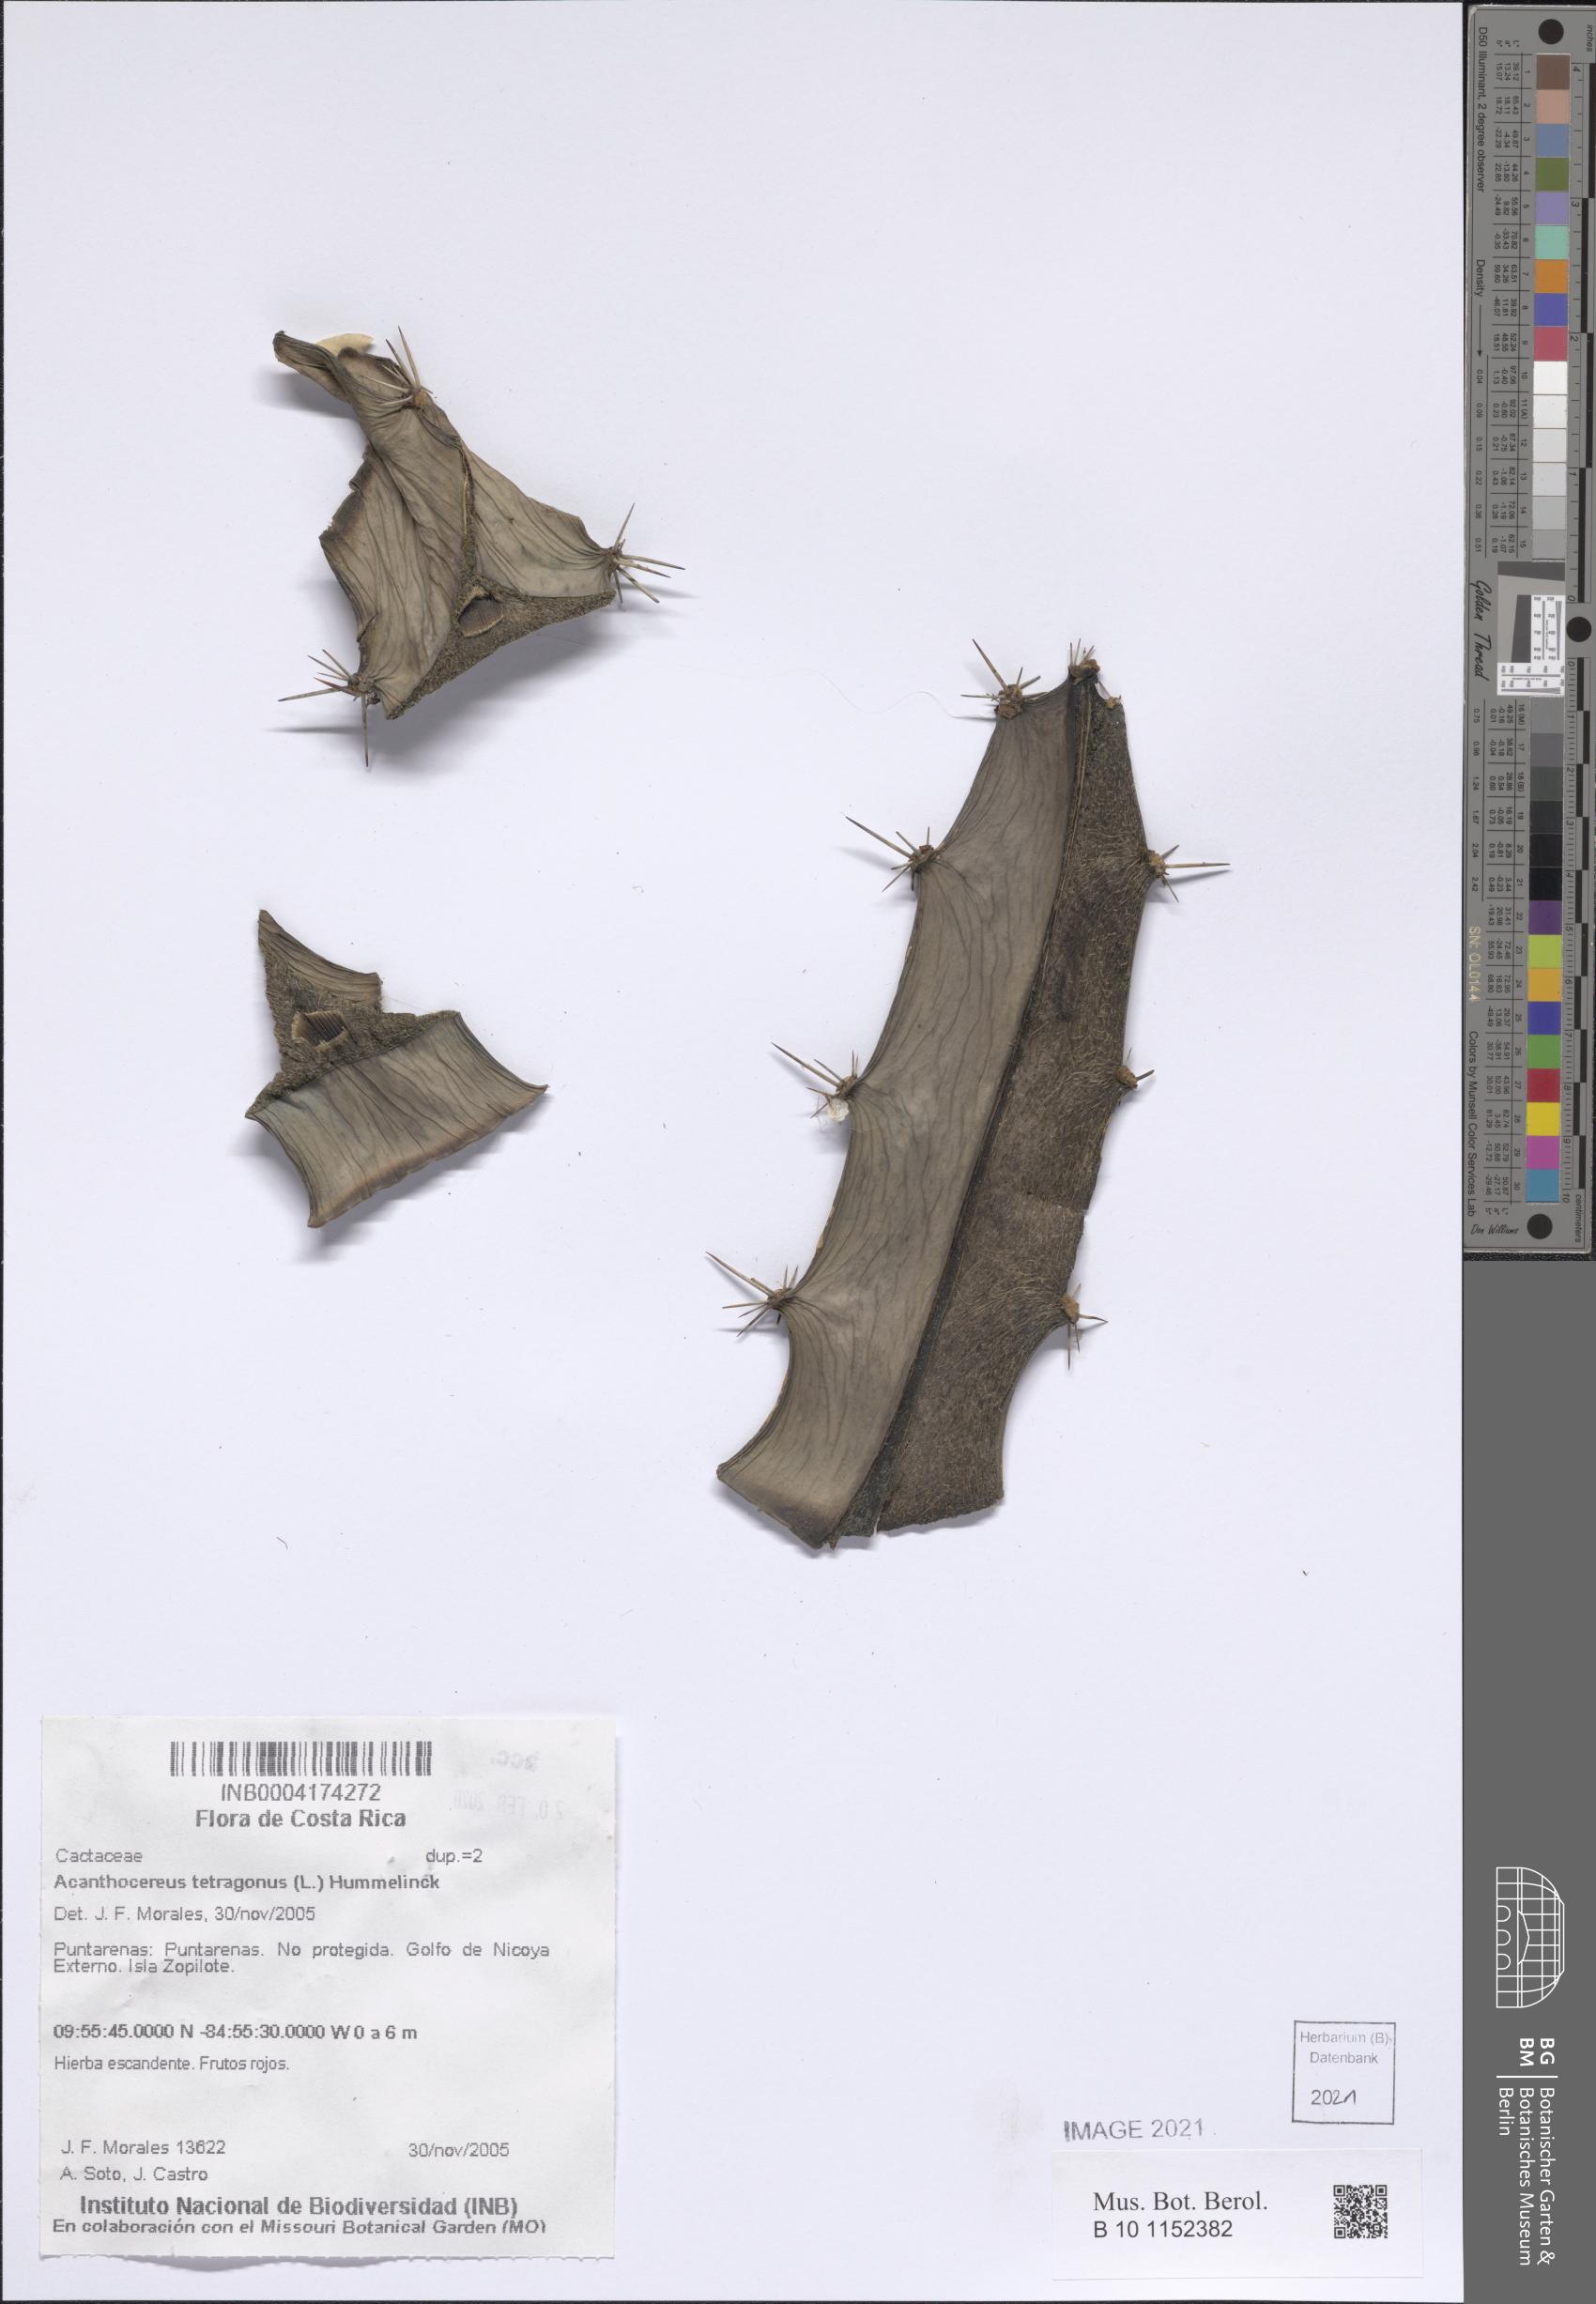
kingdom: Plantae
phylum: Tracheophyta
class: Magnoliopsida
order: Caryophyllales
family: Cactaceae
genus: Acanthocereus
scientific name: Acanthocereus tetragonus
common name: Triangle cactus
